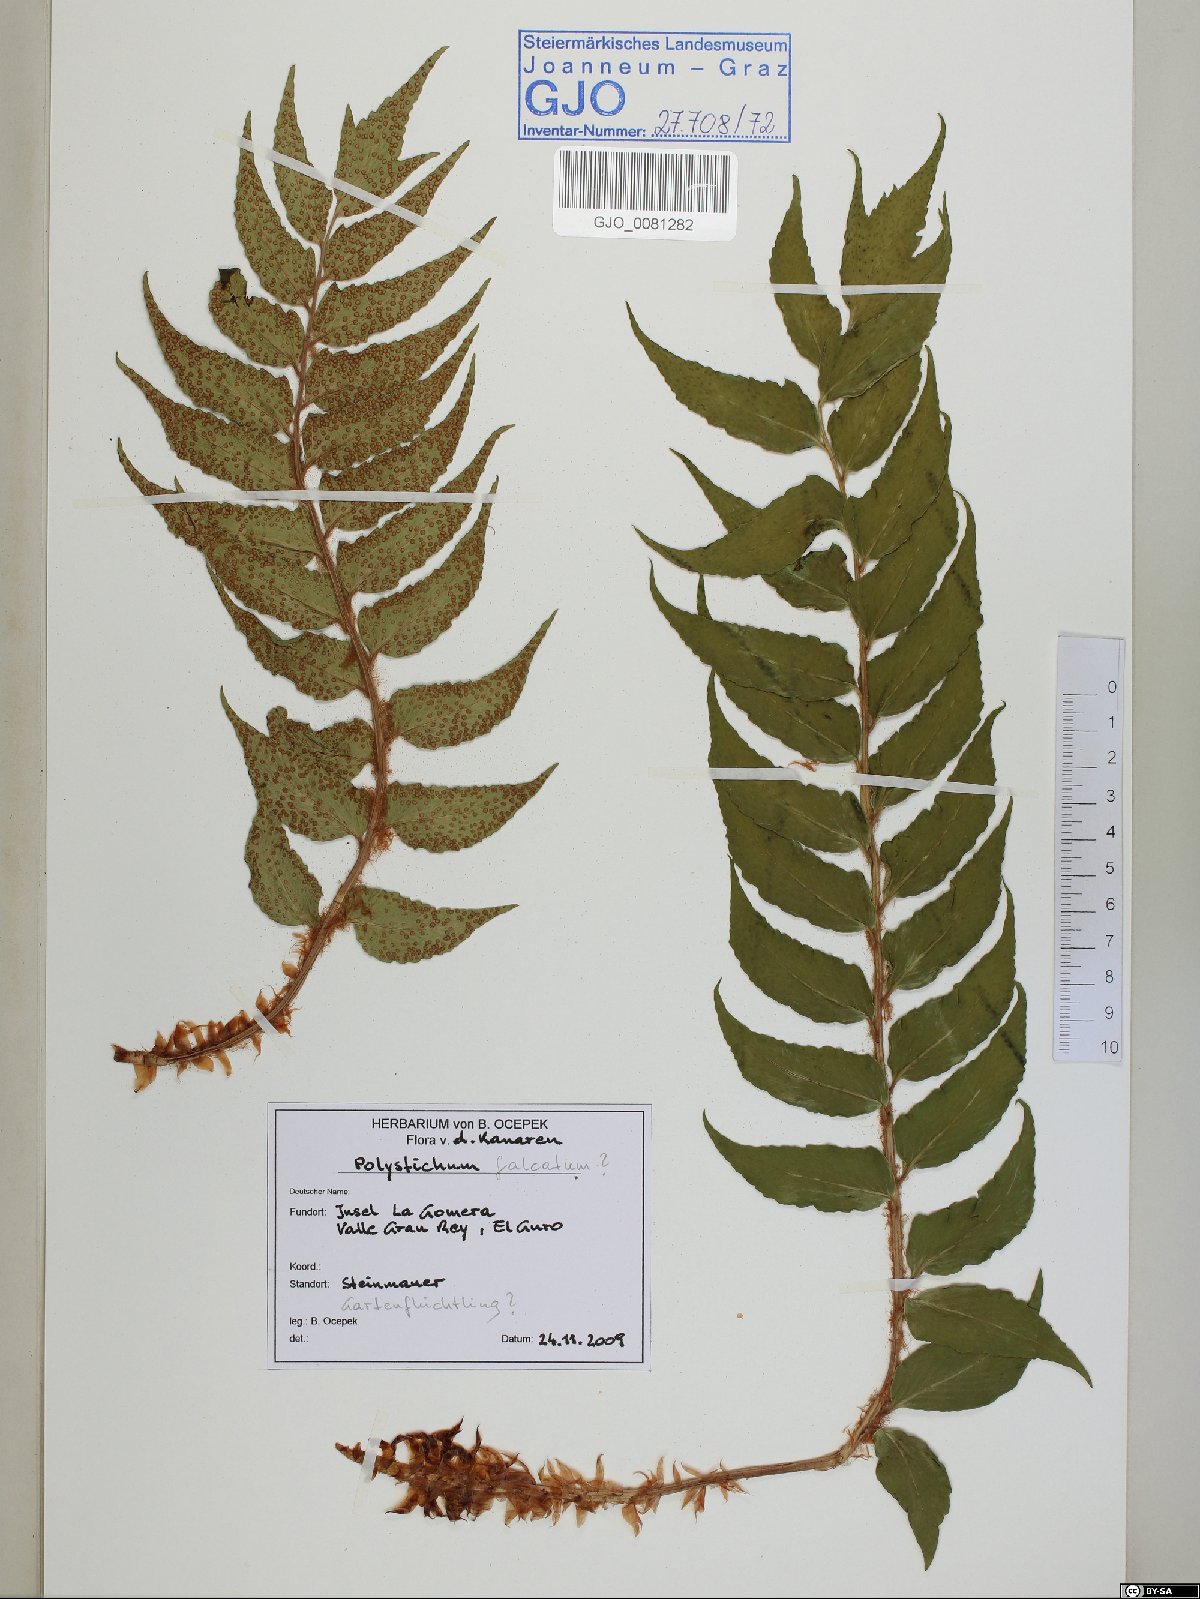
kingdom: Plantae
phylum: Tracheophyta
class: Polypodiopsida
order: Polypodiales
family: Dryopteridaceae
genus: Cyrtomium
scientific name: Cyrtomium falcatum
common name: House holly-fern
